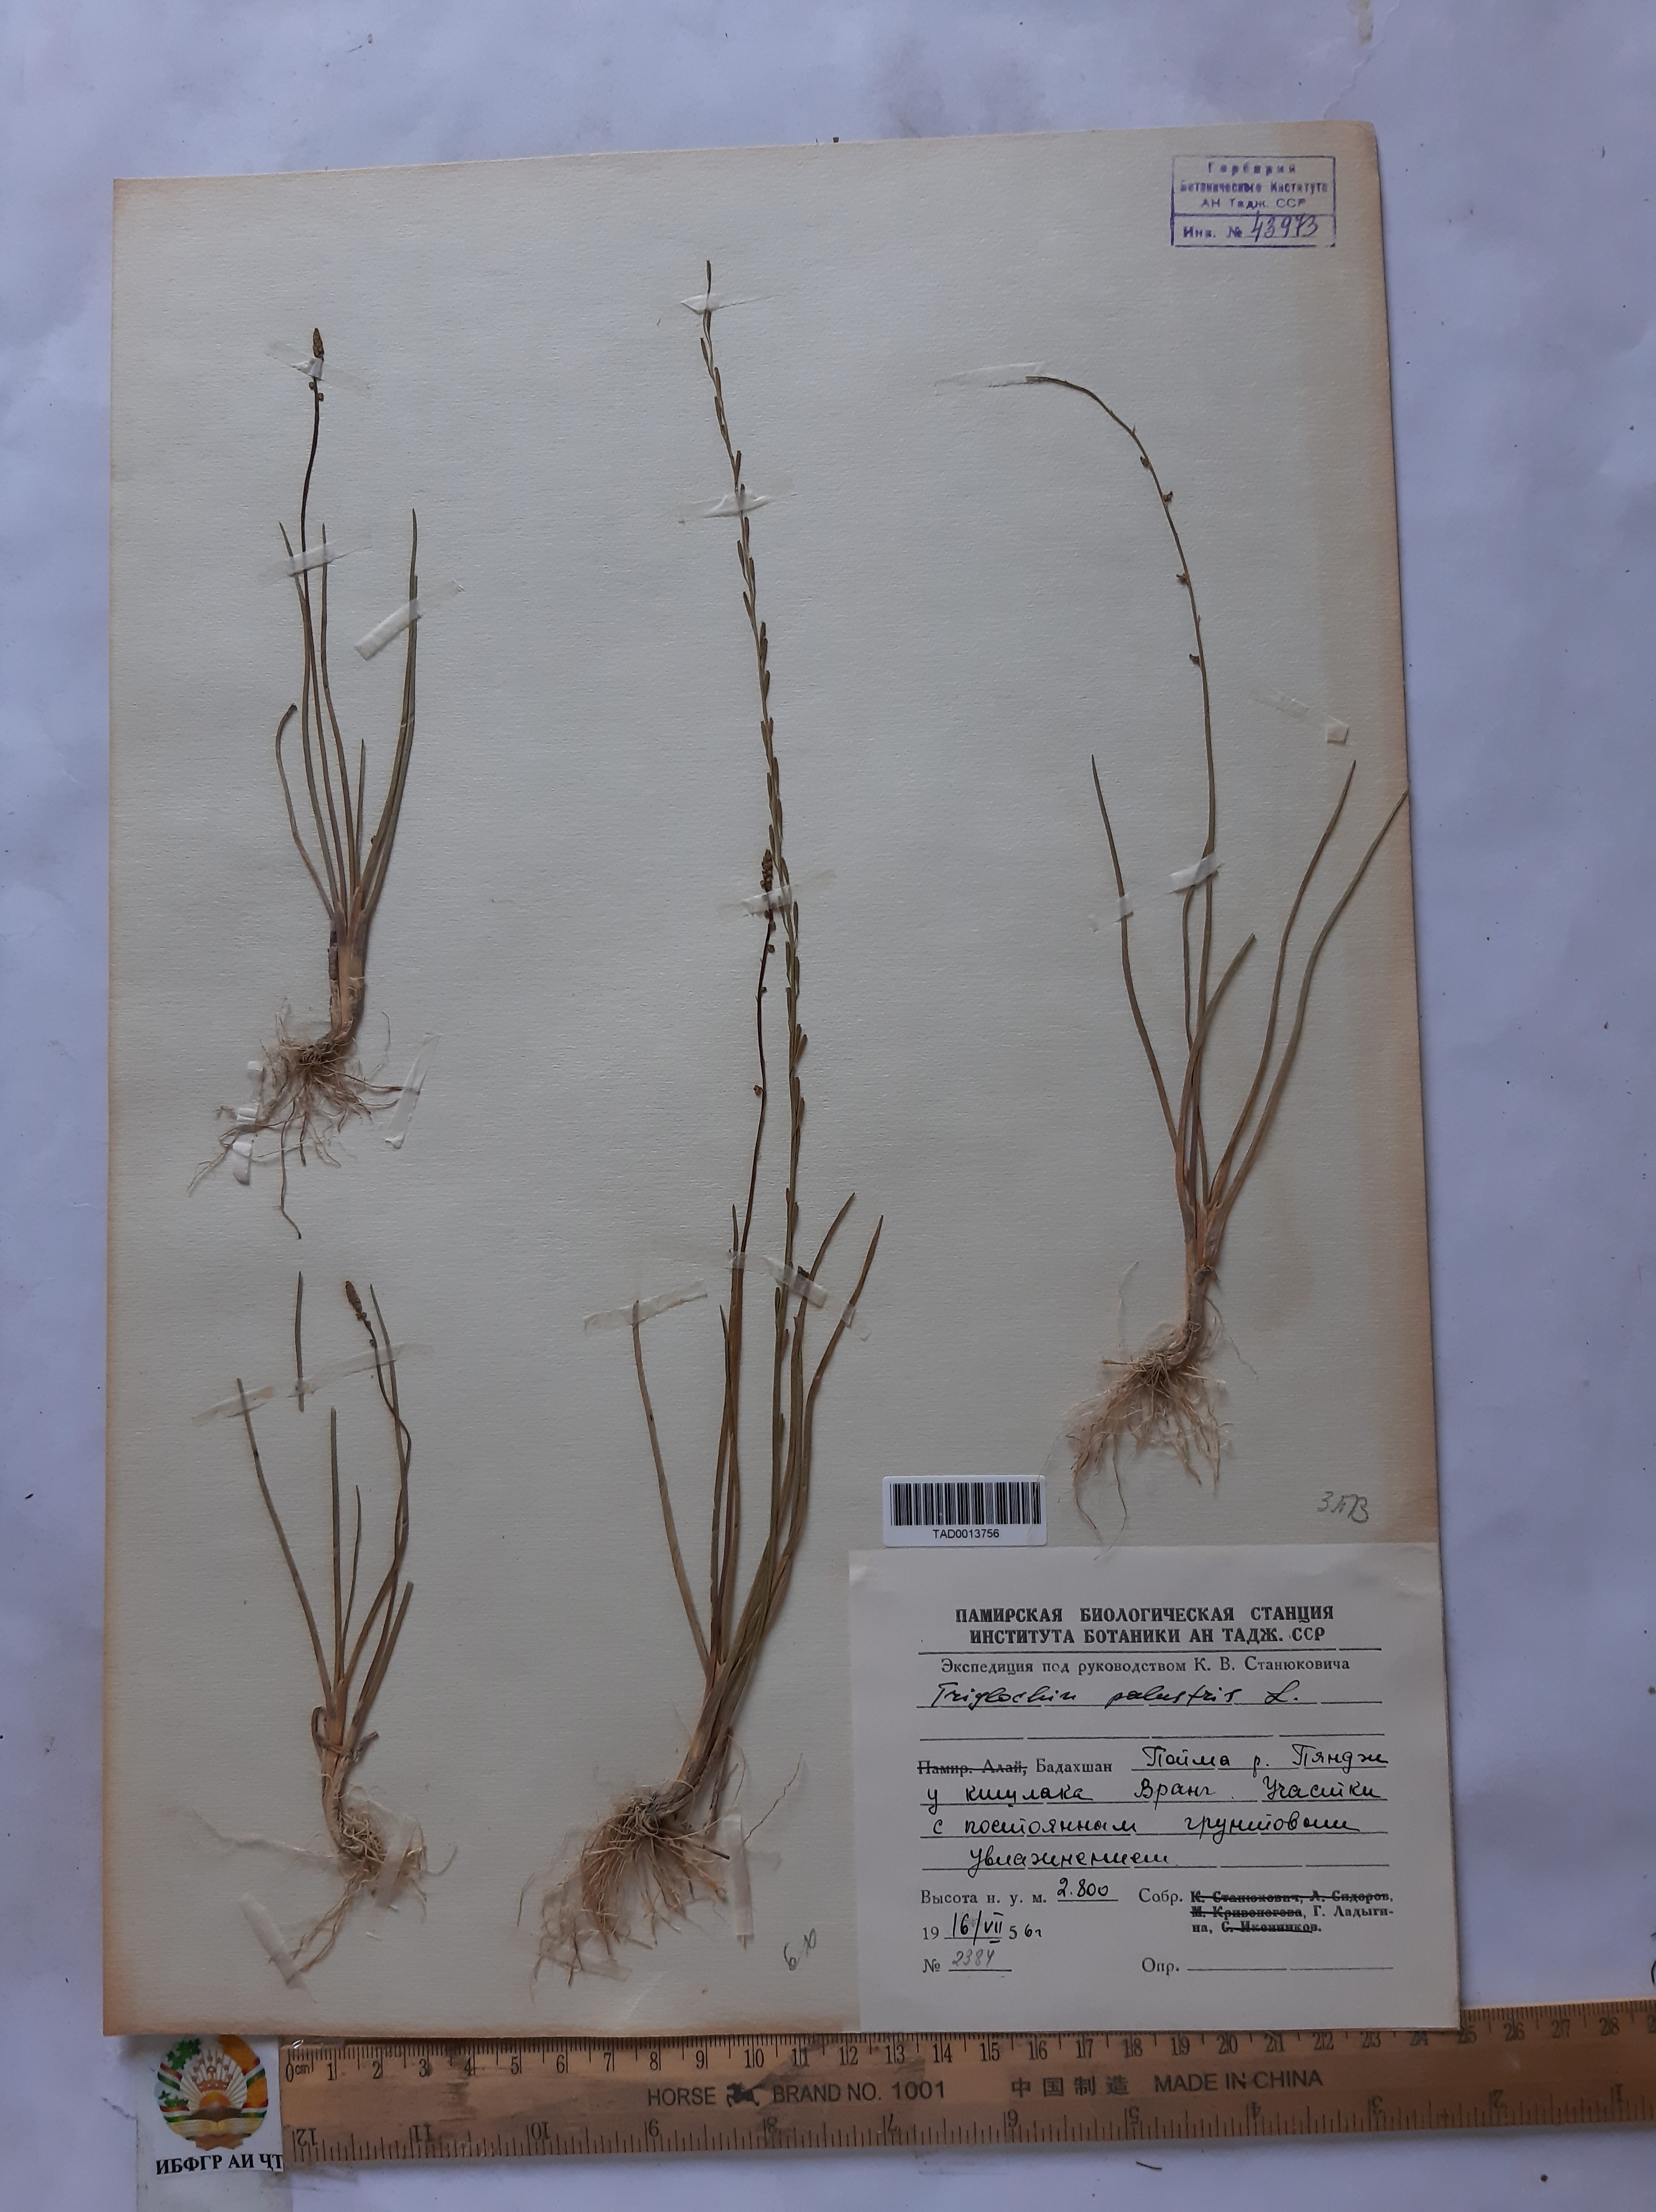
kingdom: Plantae
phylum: Tracheophyta
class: Liliopsida
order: Alismatales
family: Juncaginaceae
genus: Triglochin
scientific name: Triglochin palustris
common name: Marsh arrowgrass
